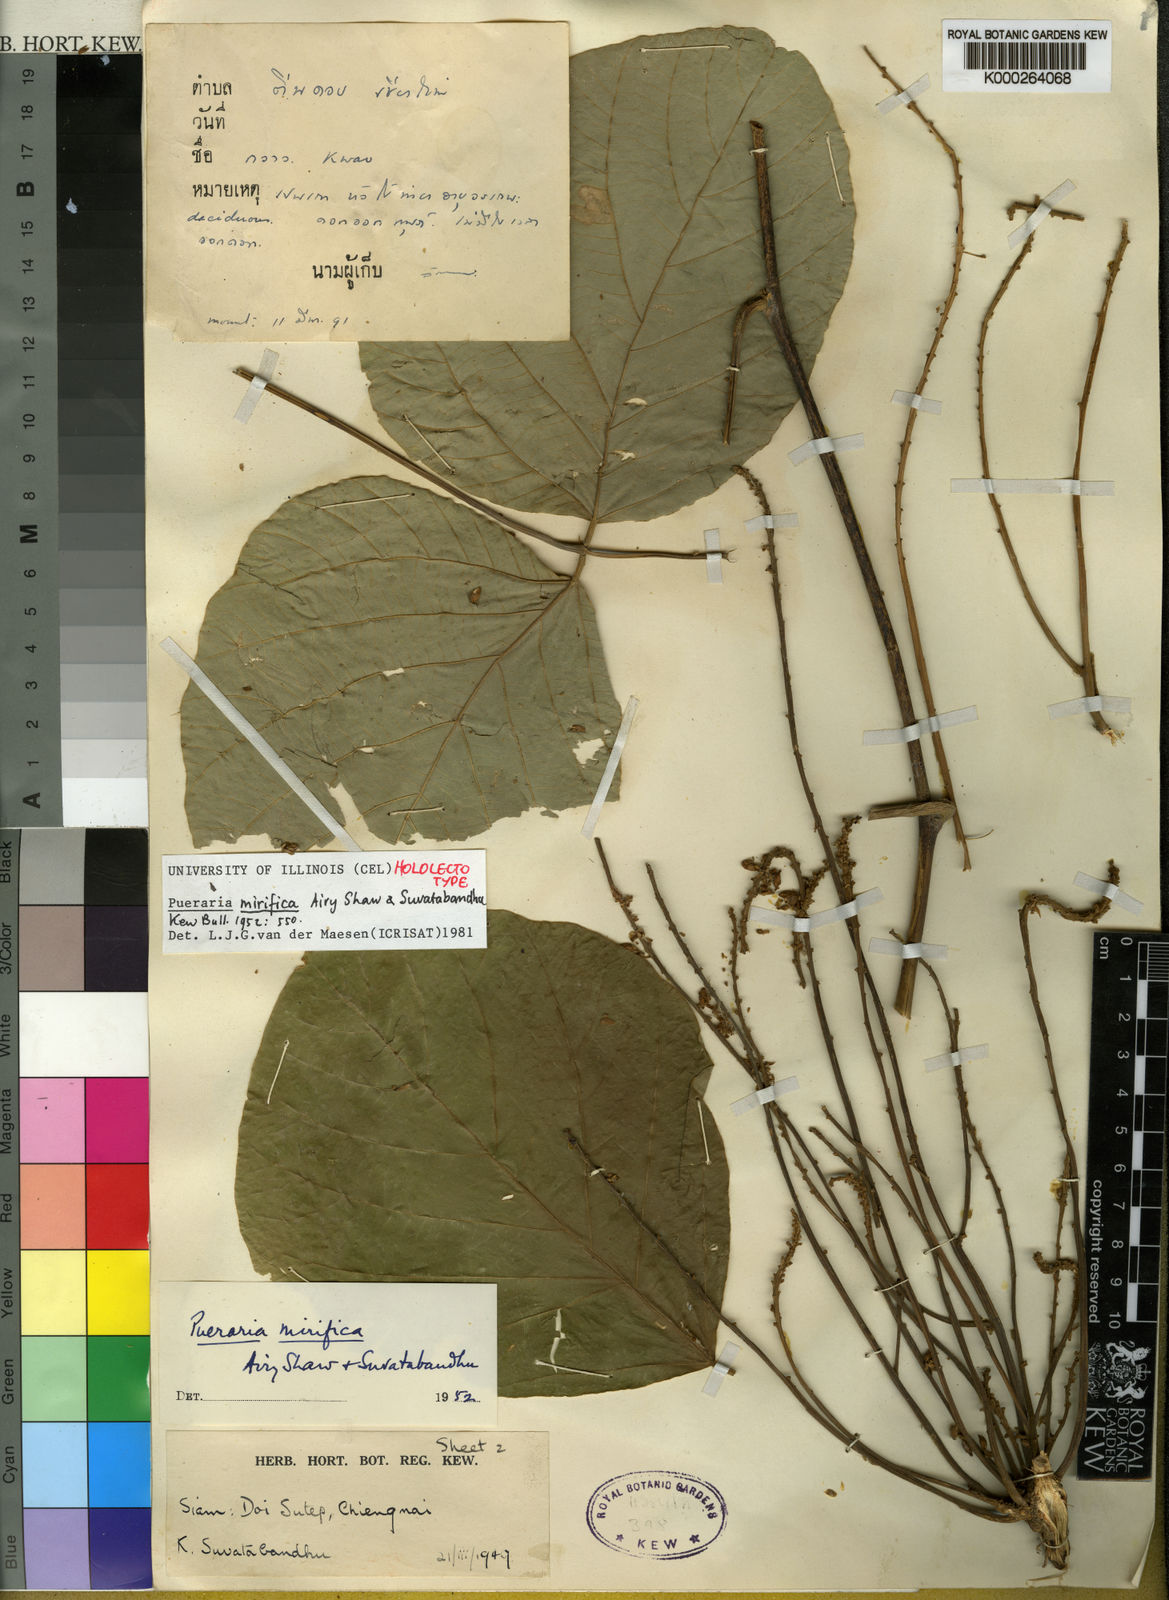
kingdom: Plantae
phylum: Tracheophyta
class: Magnoliopsida
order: Fabales
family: Fabaceae
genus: Pueraria
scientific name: Pueraria mirifica
